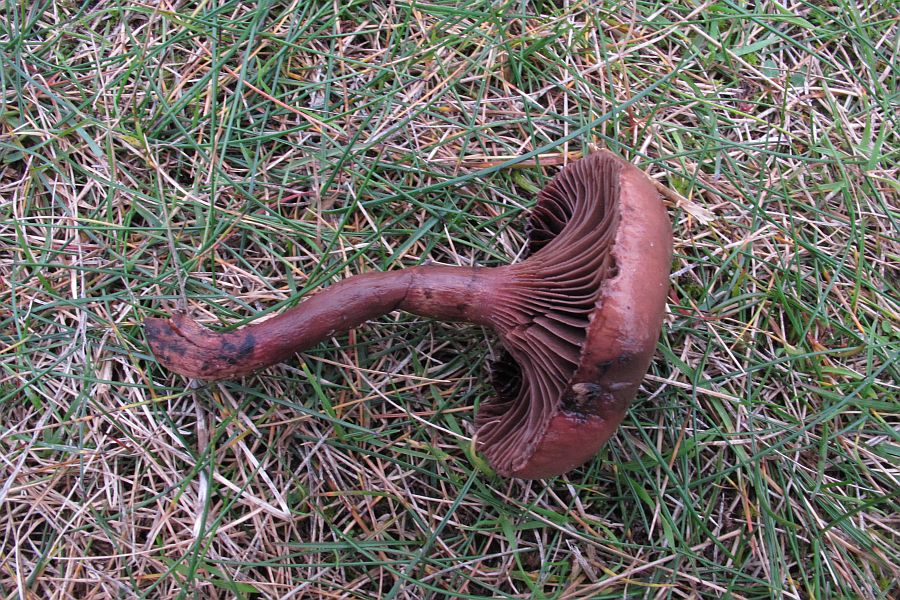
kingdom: Fungi
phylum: Basidiomycota
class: Agaricomycetes
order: Boletales
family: Gomphidiaceae
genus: Chroogomphus
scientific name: Chroogomphus rutilus
